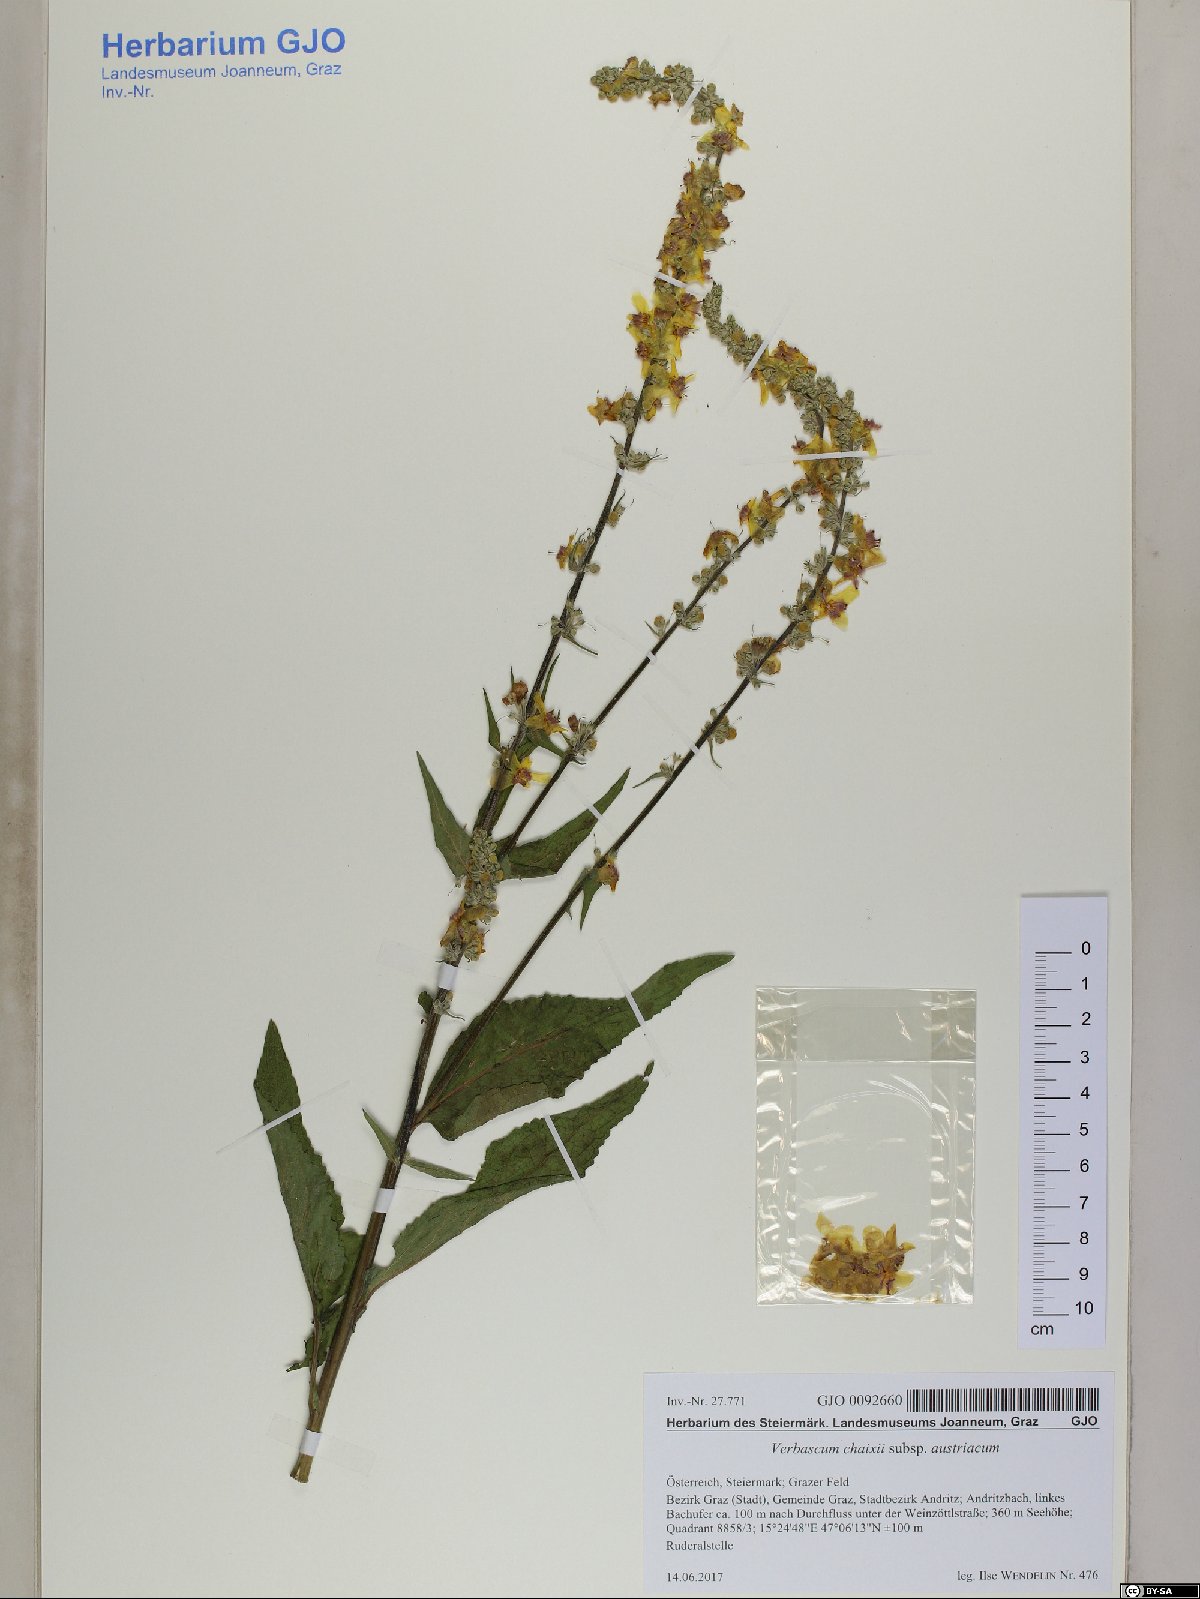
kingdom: Plantae
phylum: Tracheophyta
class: Magnoliopsida
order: Lamiales
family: Scrophulariaceae
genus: Verbascum
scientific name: Verbascum chaixii
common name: Nettle-leaved mullein
